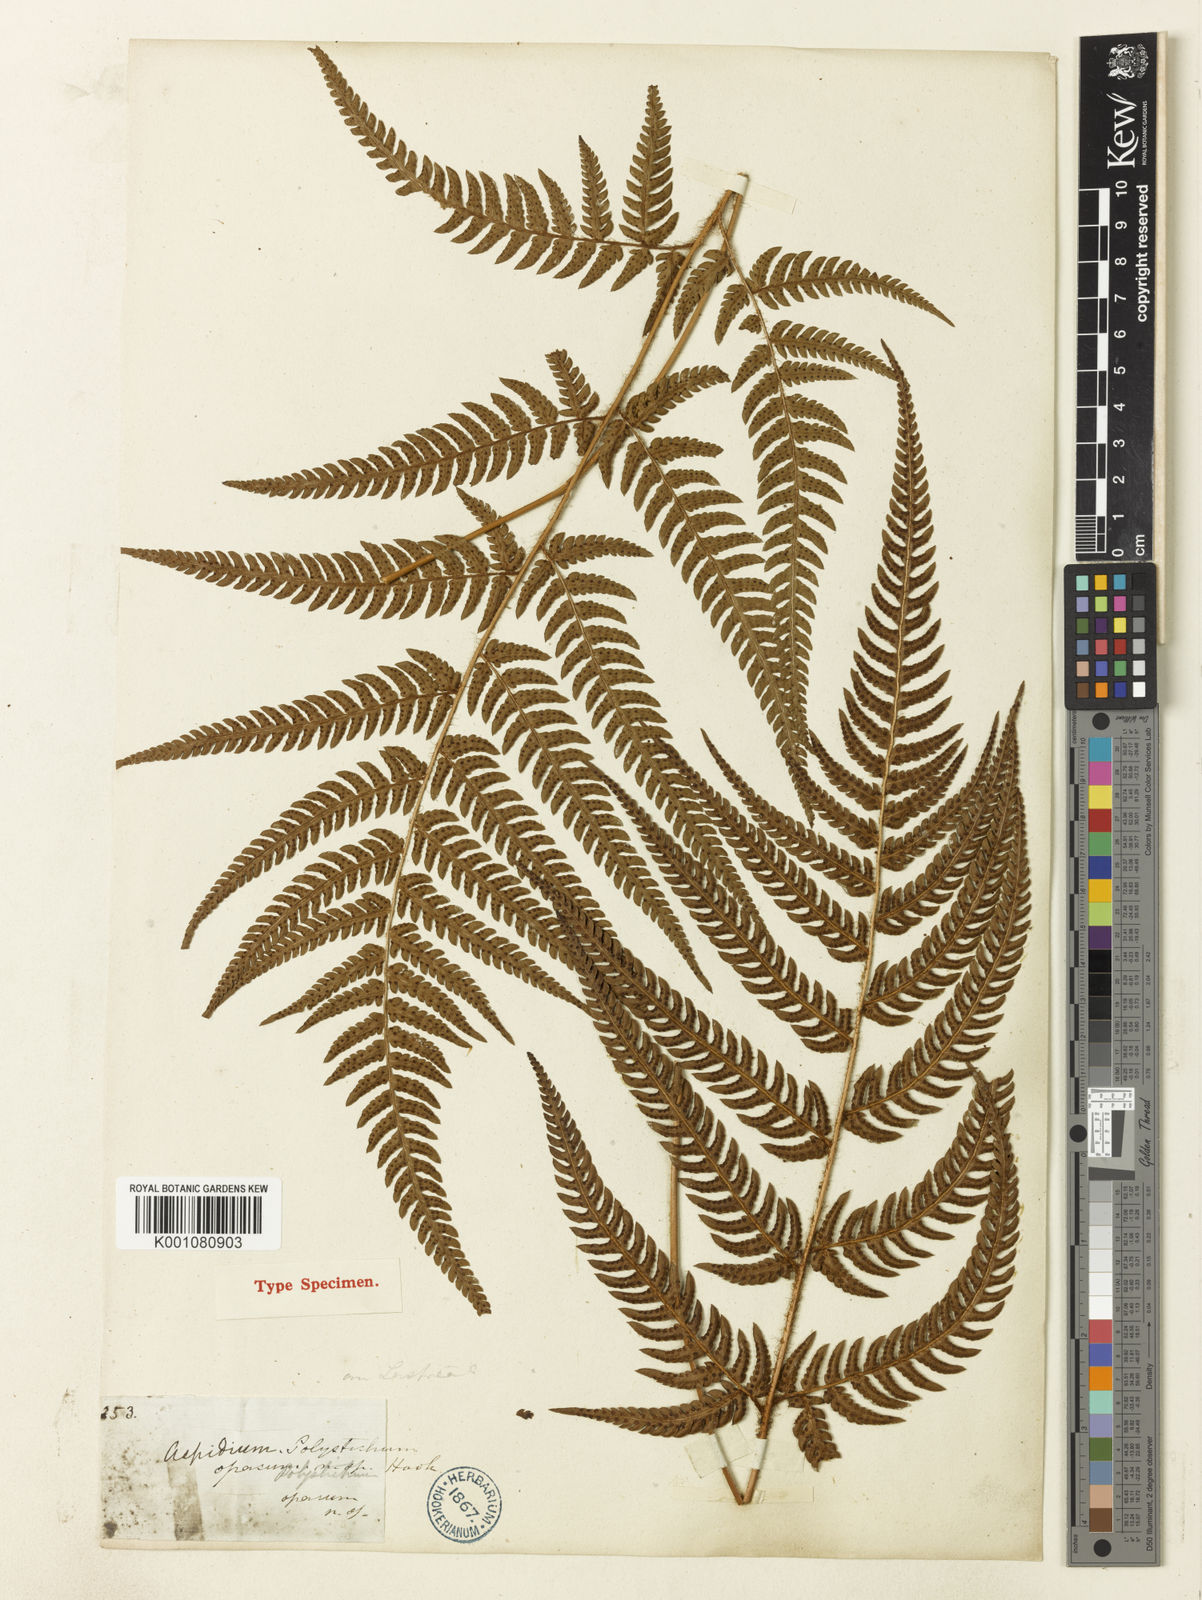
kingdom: Plantae
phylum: Tracheophyta
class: Polypodiopsida
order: Polypodiales
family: Dryopteridaceae
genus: Dryopteris
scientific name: Dryopteris varia
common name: Japanese holly fern
